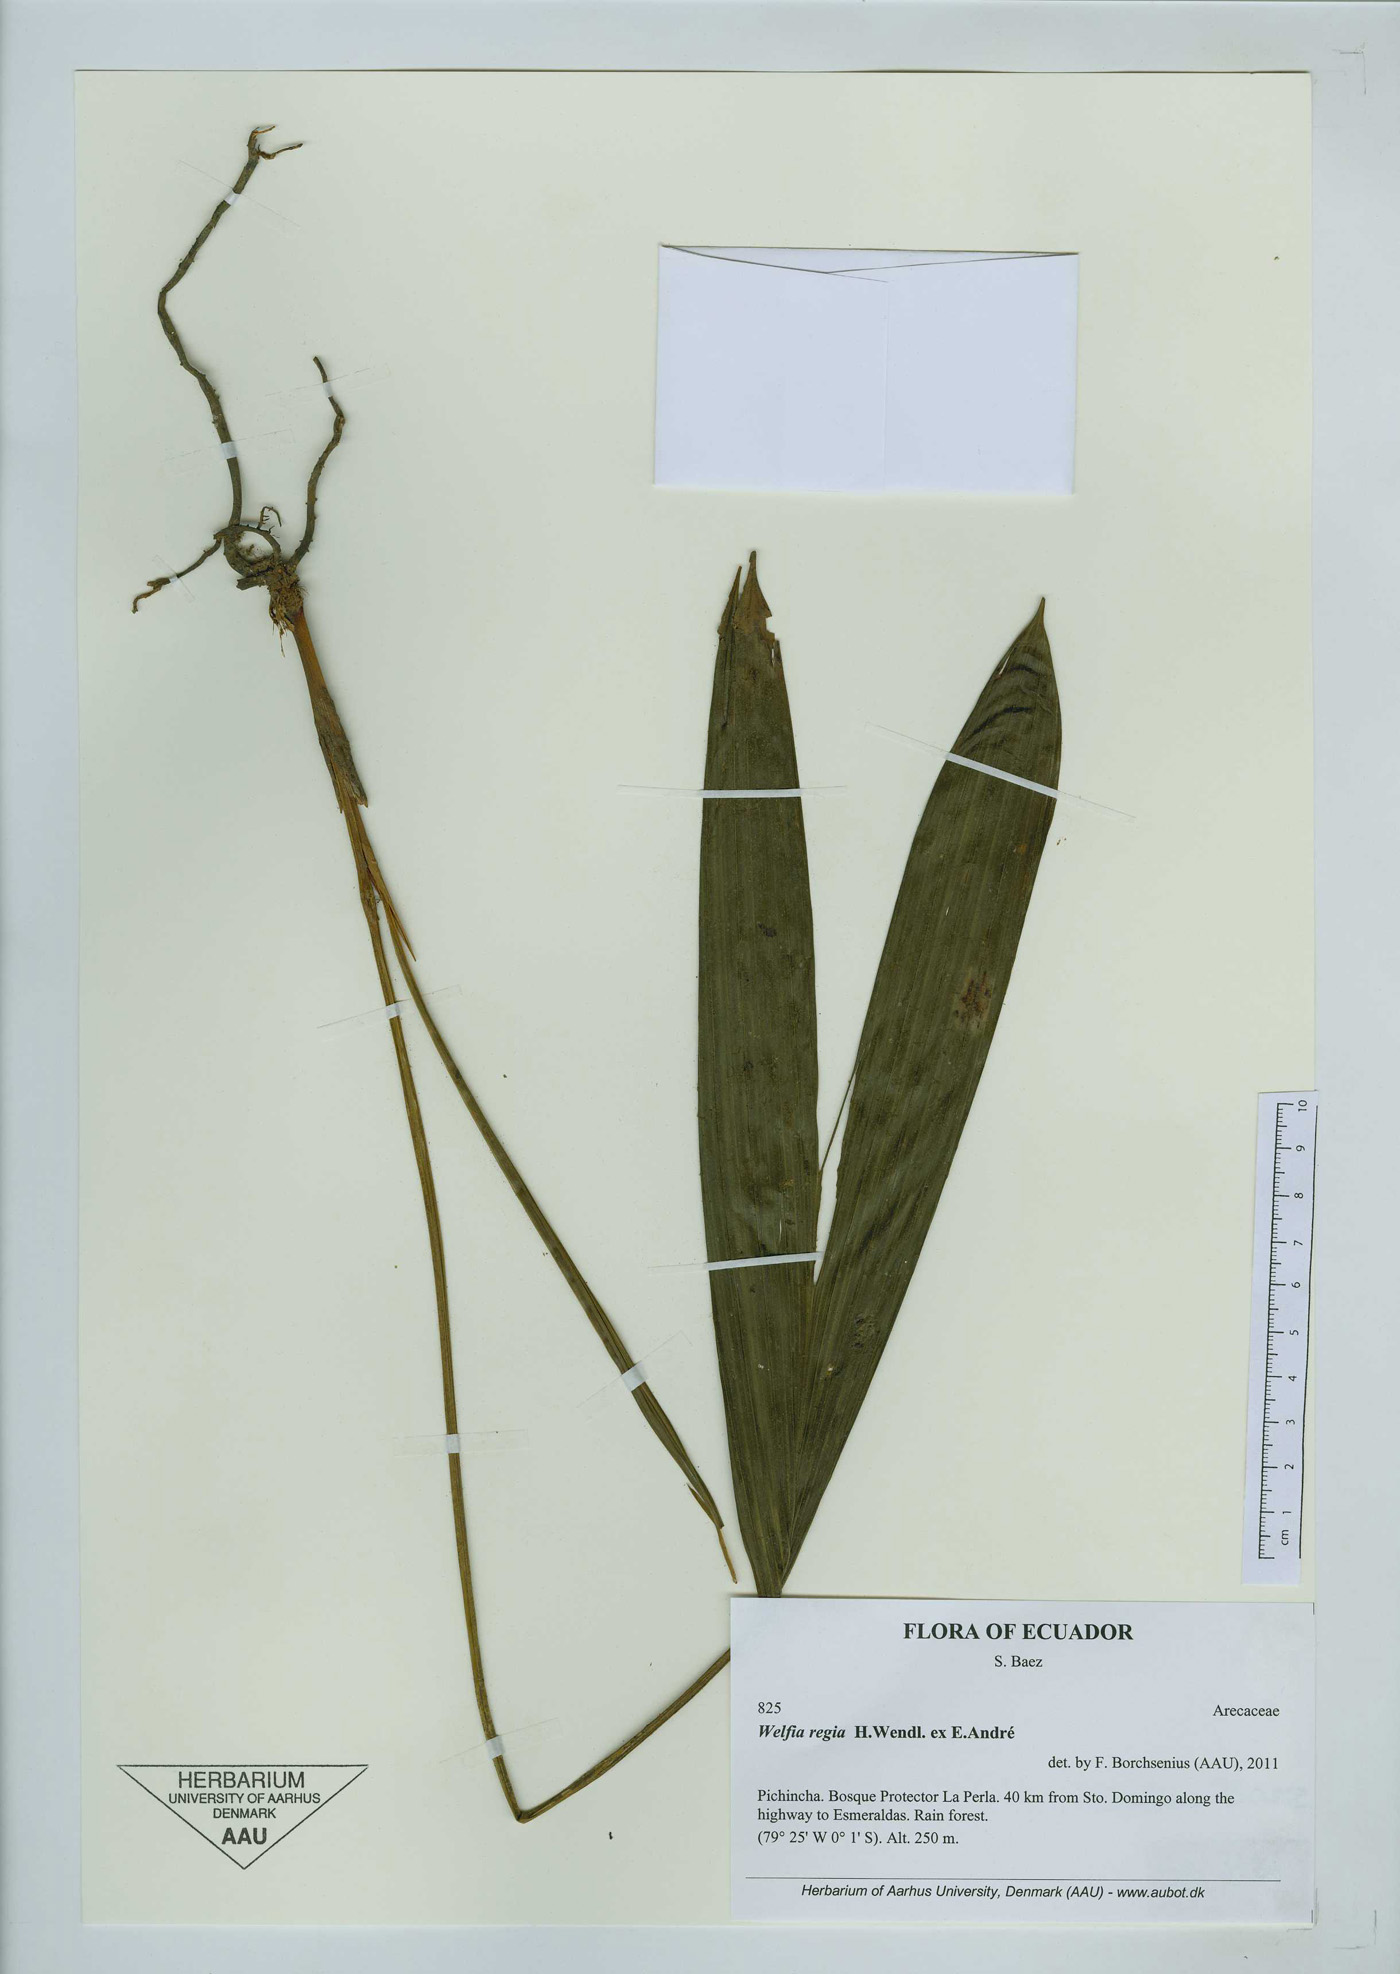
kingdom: Plantae
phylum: Tracheophyta
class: Liliopsida
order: Arecales
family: Arecaceae
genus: Welfia
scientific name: Welfia regia
